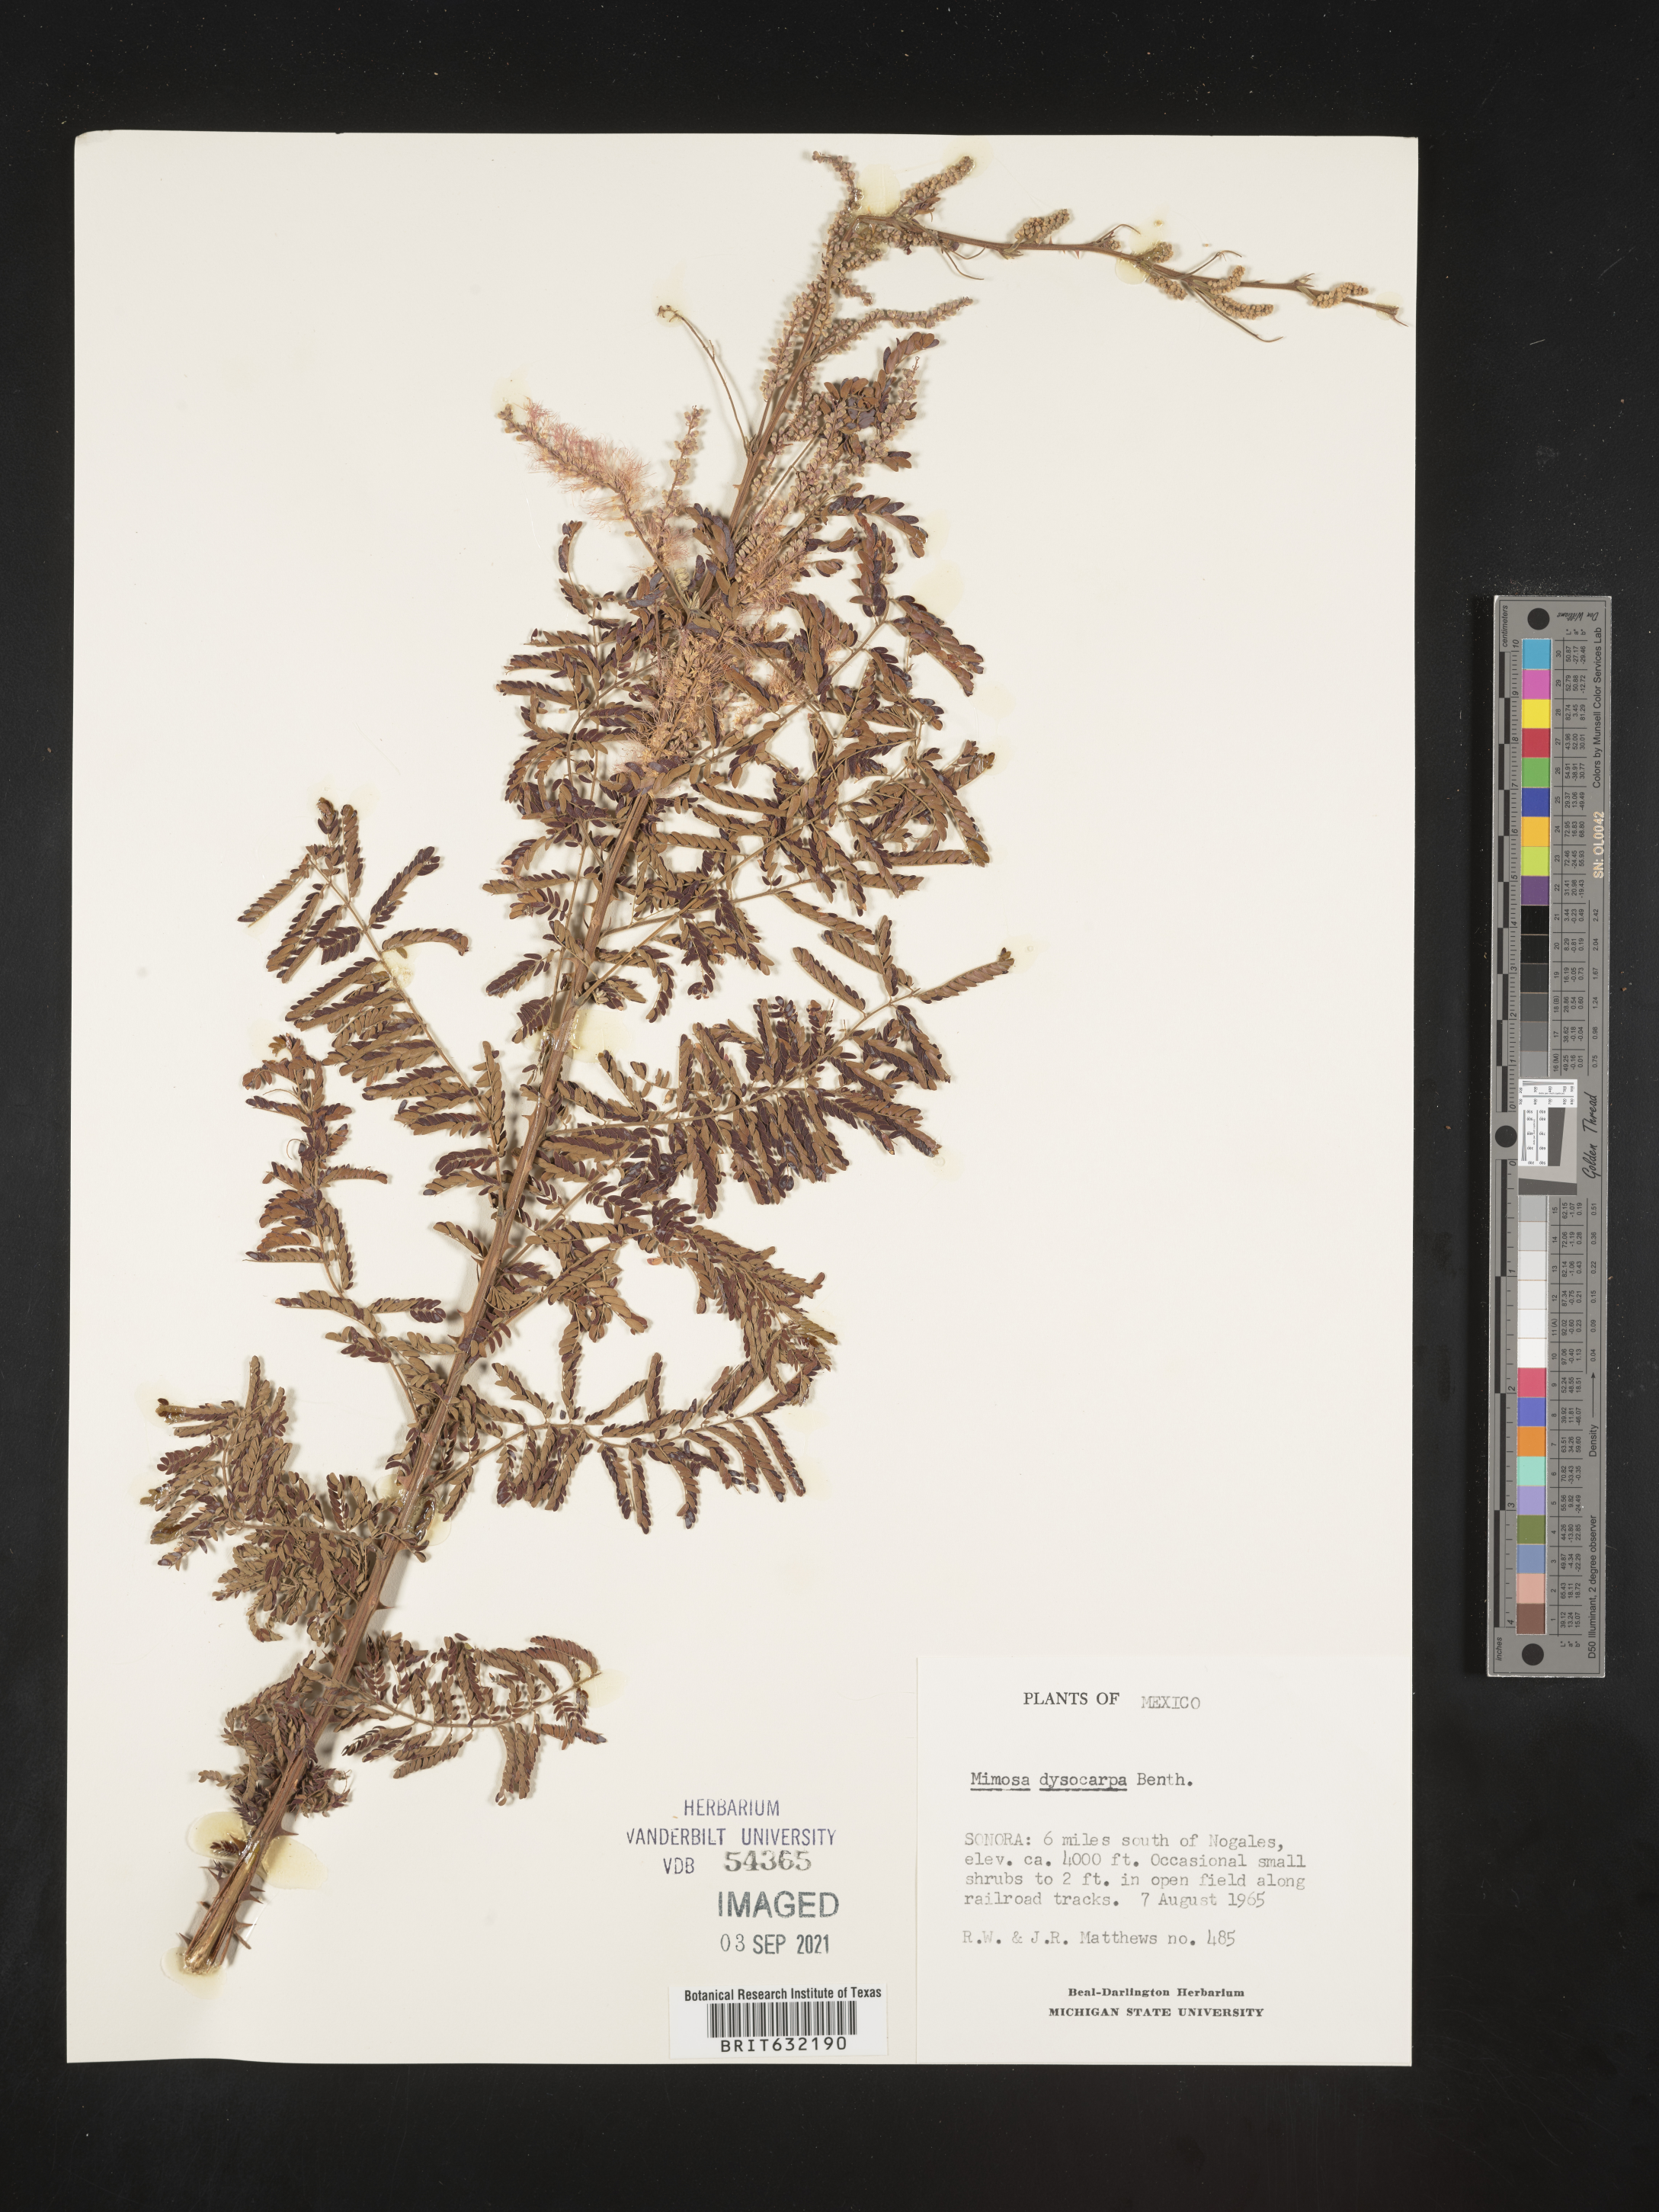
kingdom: Plantae
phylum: Tracheophyta
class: Magnoliopsida
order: Fabales
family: Fabaceae
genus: Mimosa
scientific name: Mimosa
